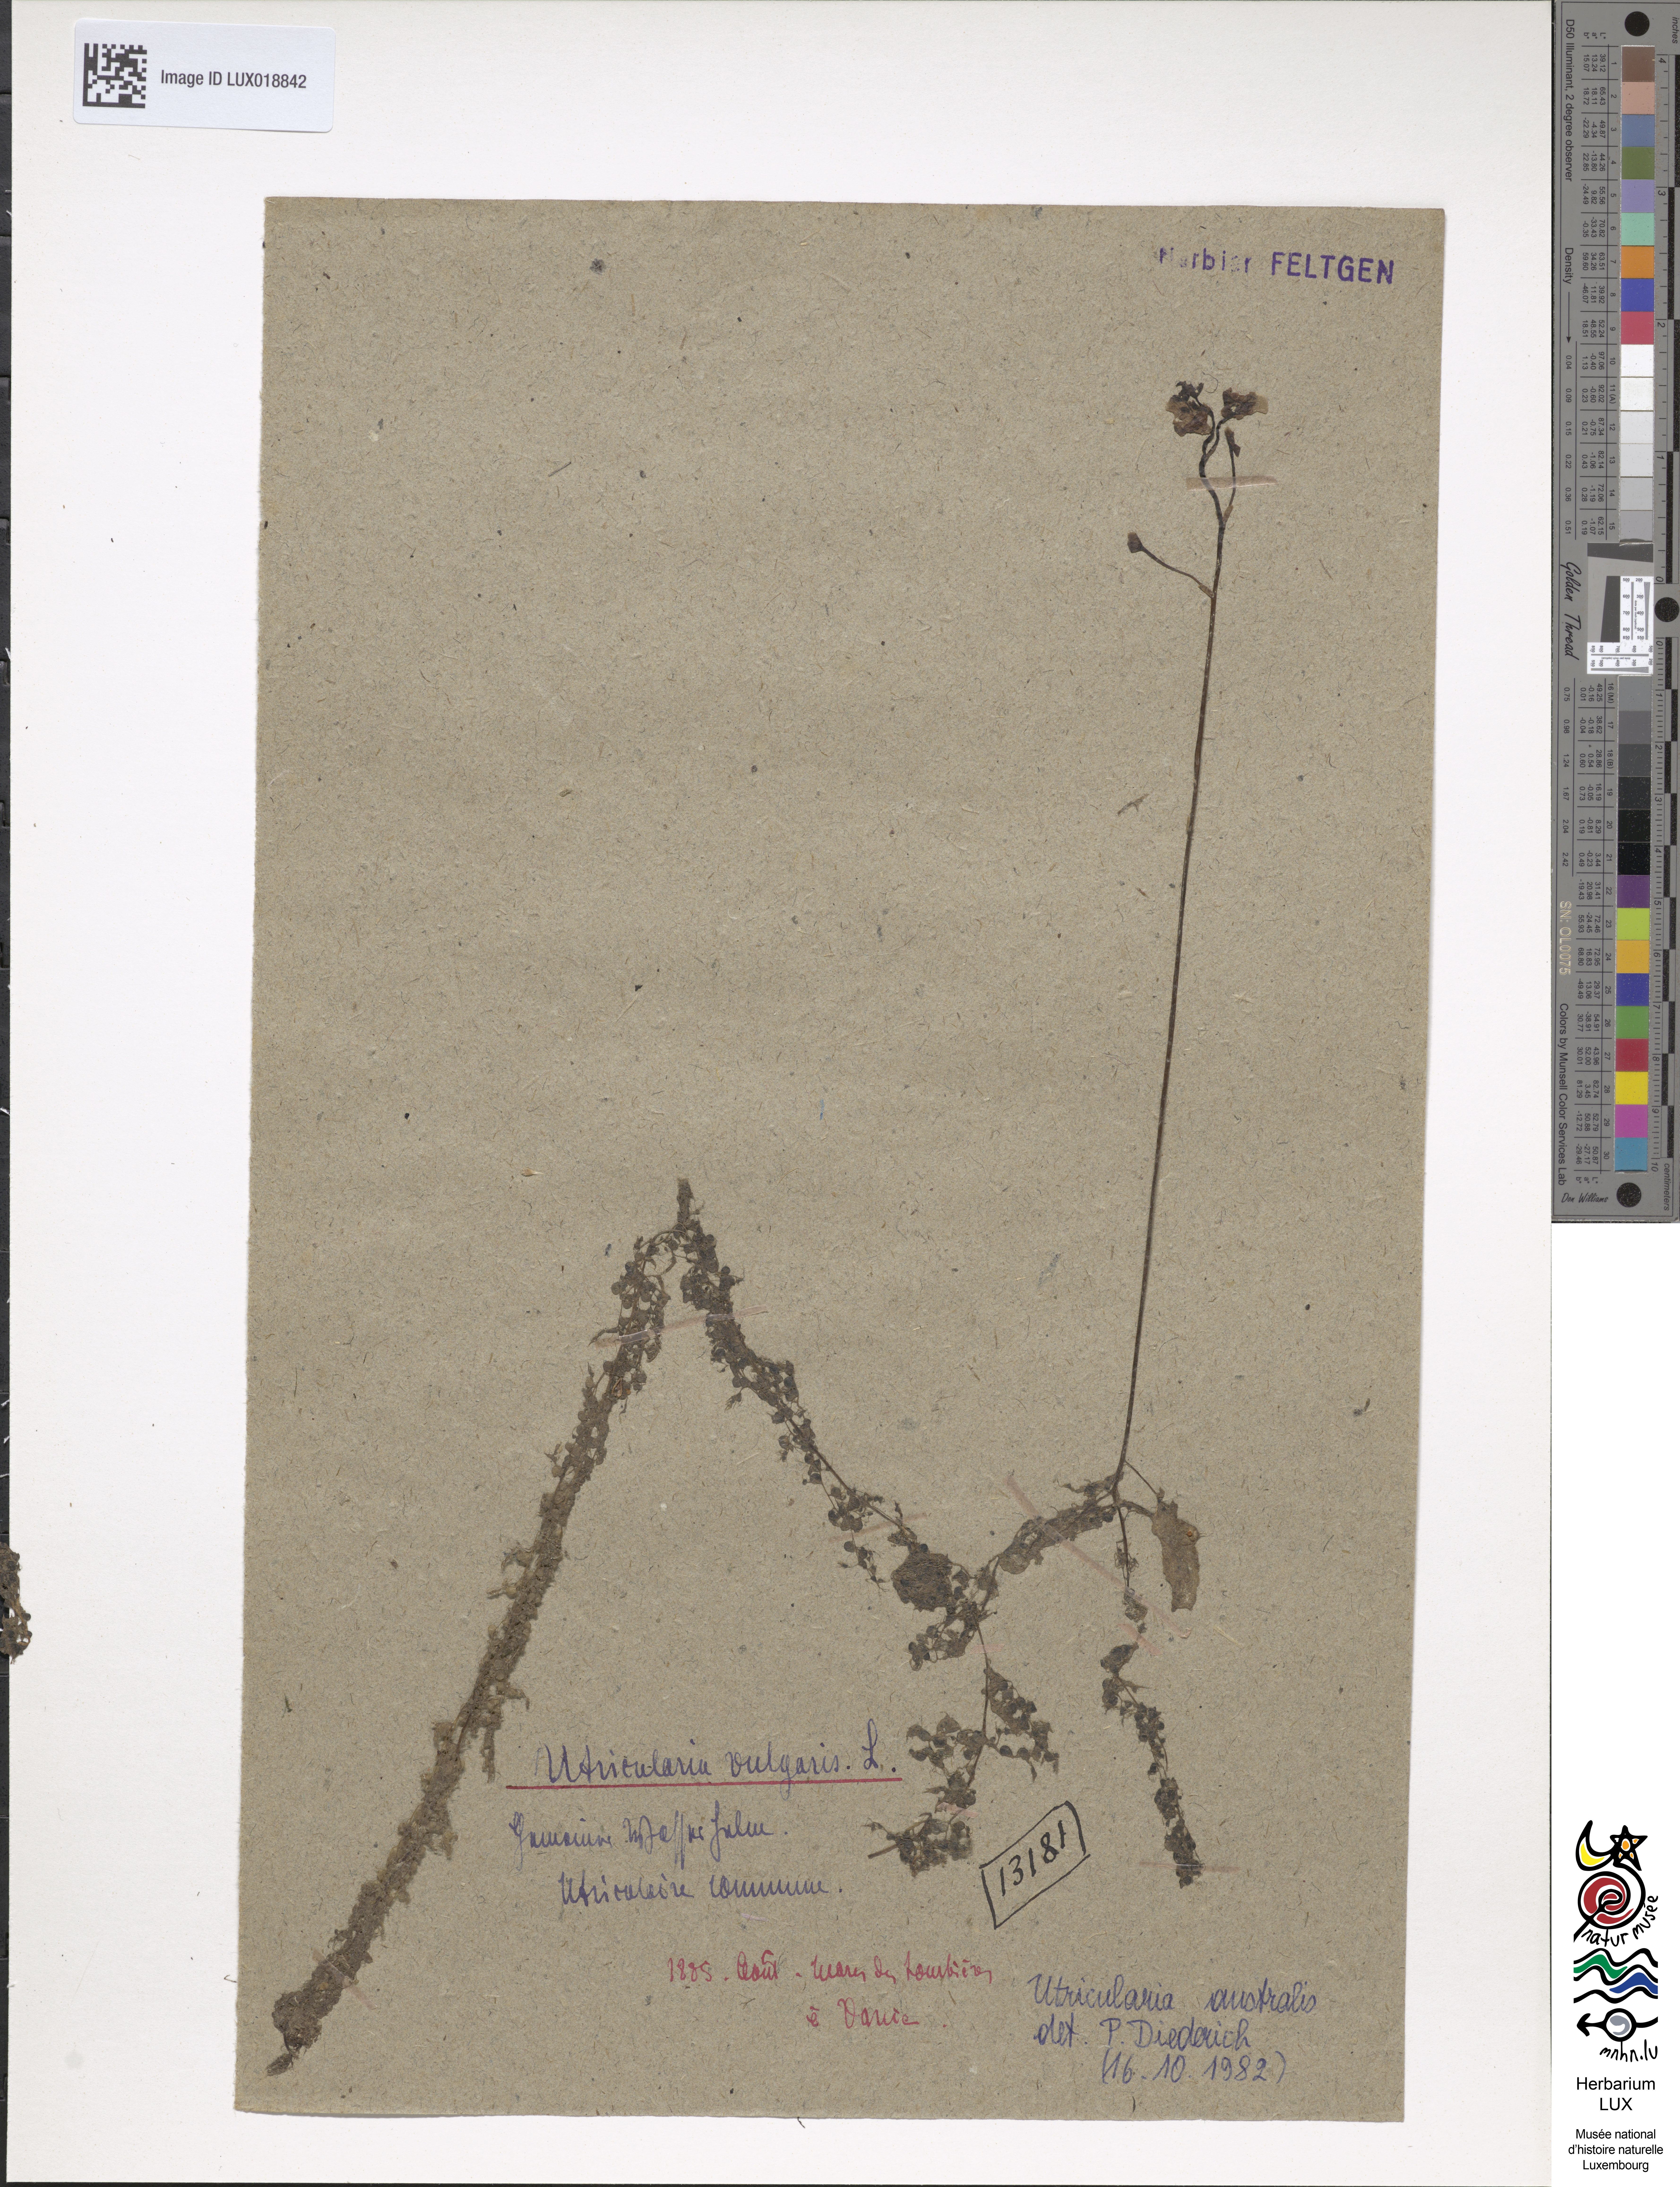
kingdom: Plantae
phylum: Tracheophyta
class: Magnoliopsida
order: Lamiales
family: Lentibulariaceae
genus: Utricularia
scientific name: Utricularia vulgaris
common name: Greater bladderwort
